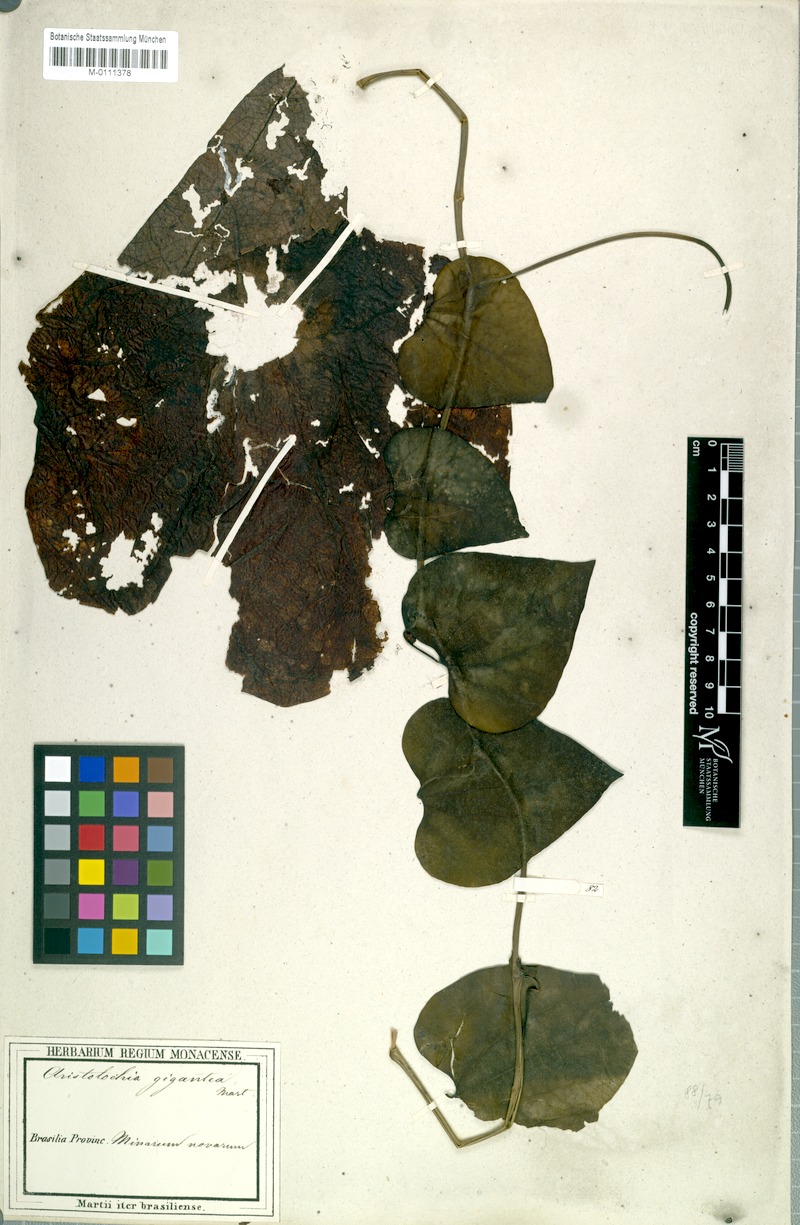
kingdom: Plantae
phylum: Tracheophyta
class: Magnoliopsida
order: Piperales
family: Aristolochiaceae
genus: Aristolochia
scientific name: Aristolochia gigantea
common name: Duckflower
